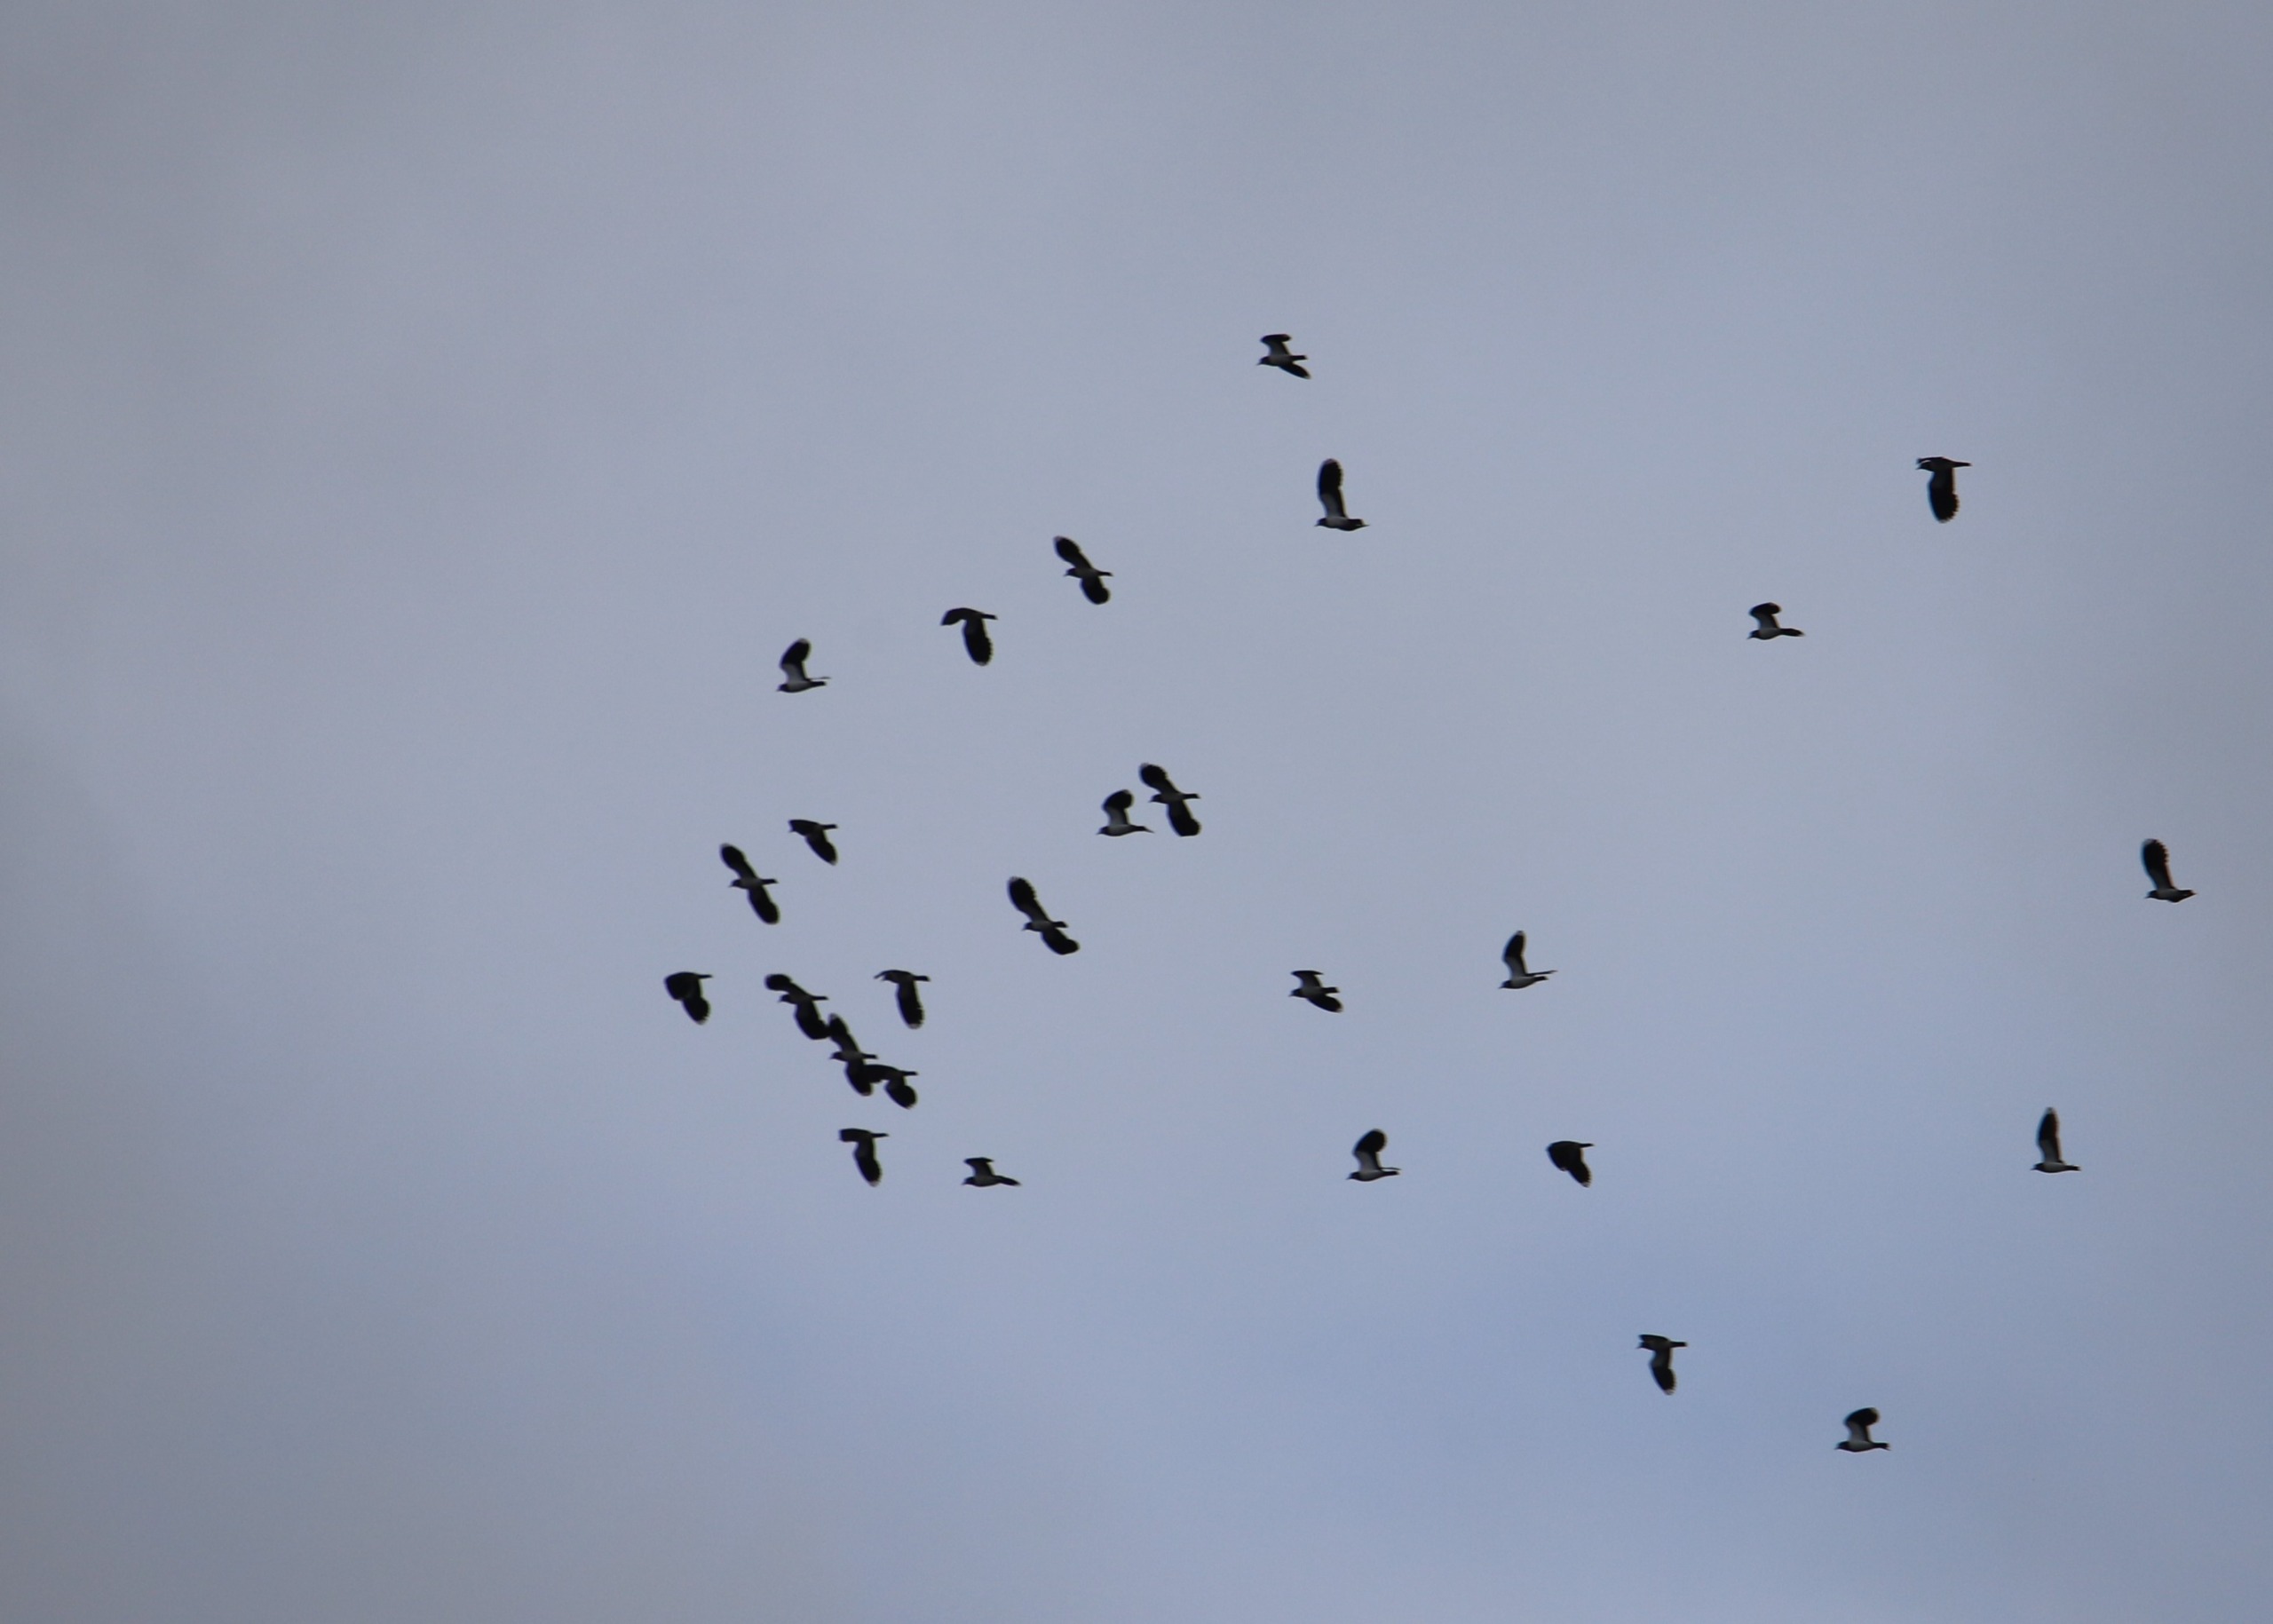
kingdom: Animalia
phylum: Chordata
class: Aves
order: Charadriiformes
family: Charadriidae
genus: Vanellus
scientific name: Vanellus vanellus
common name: Vibe
